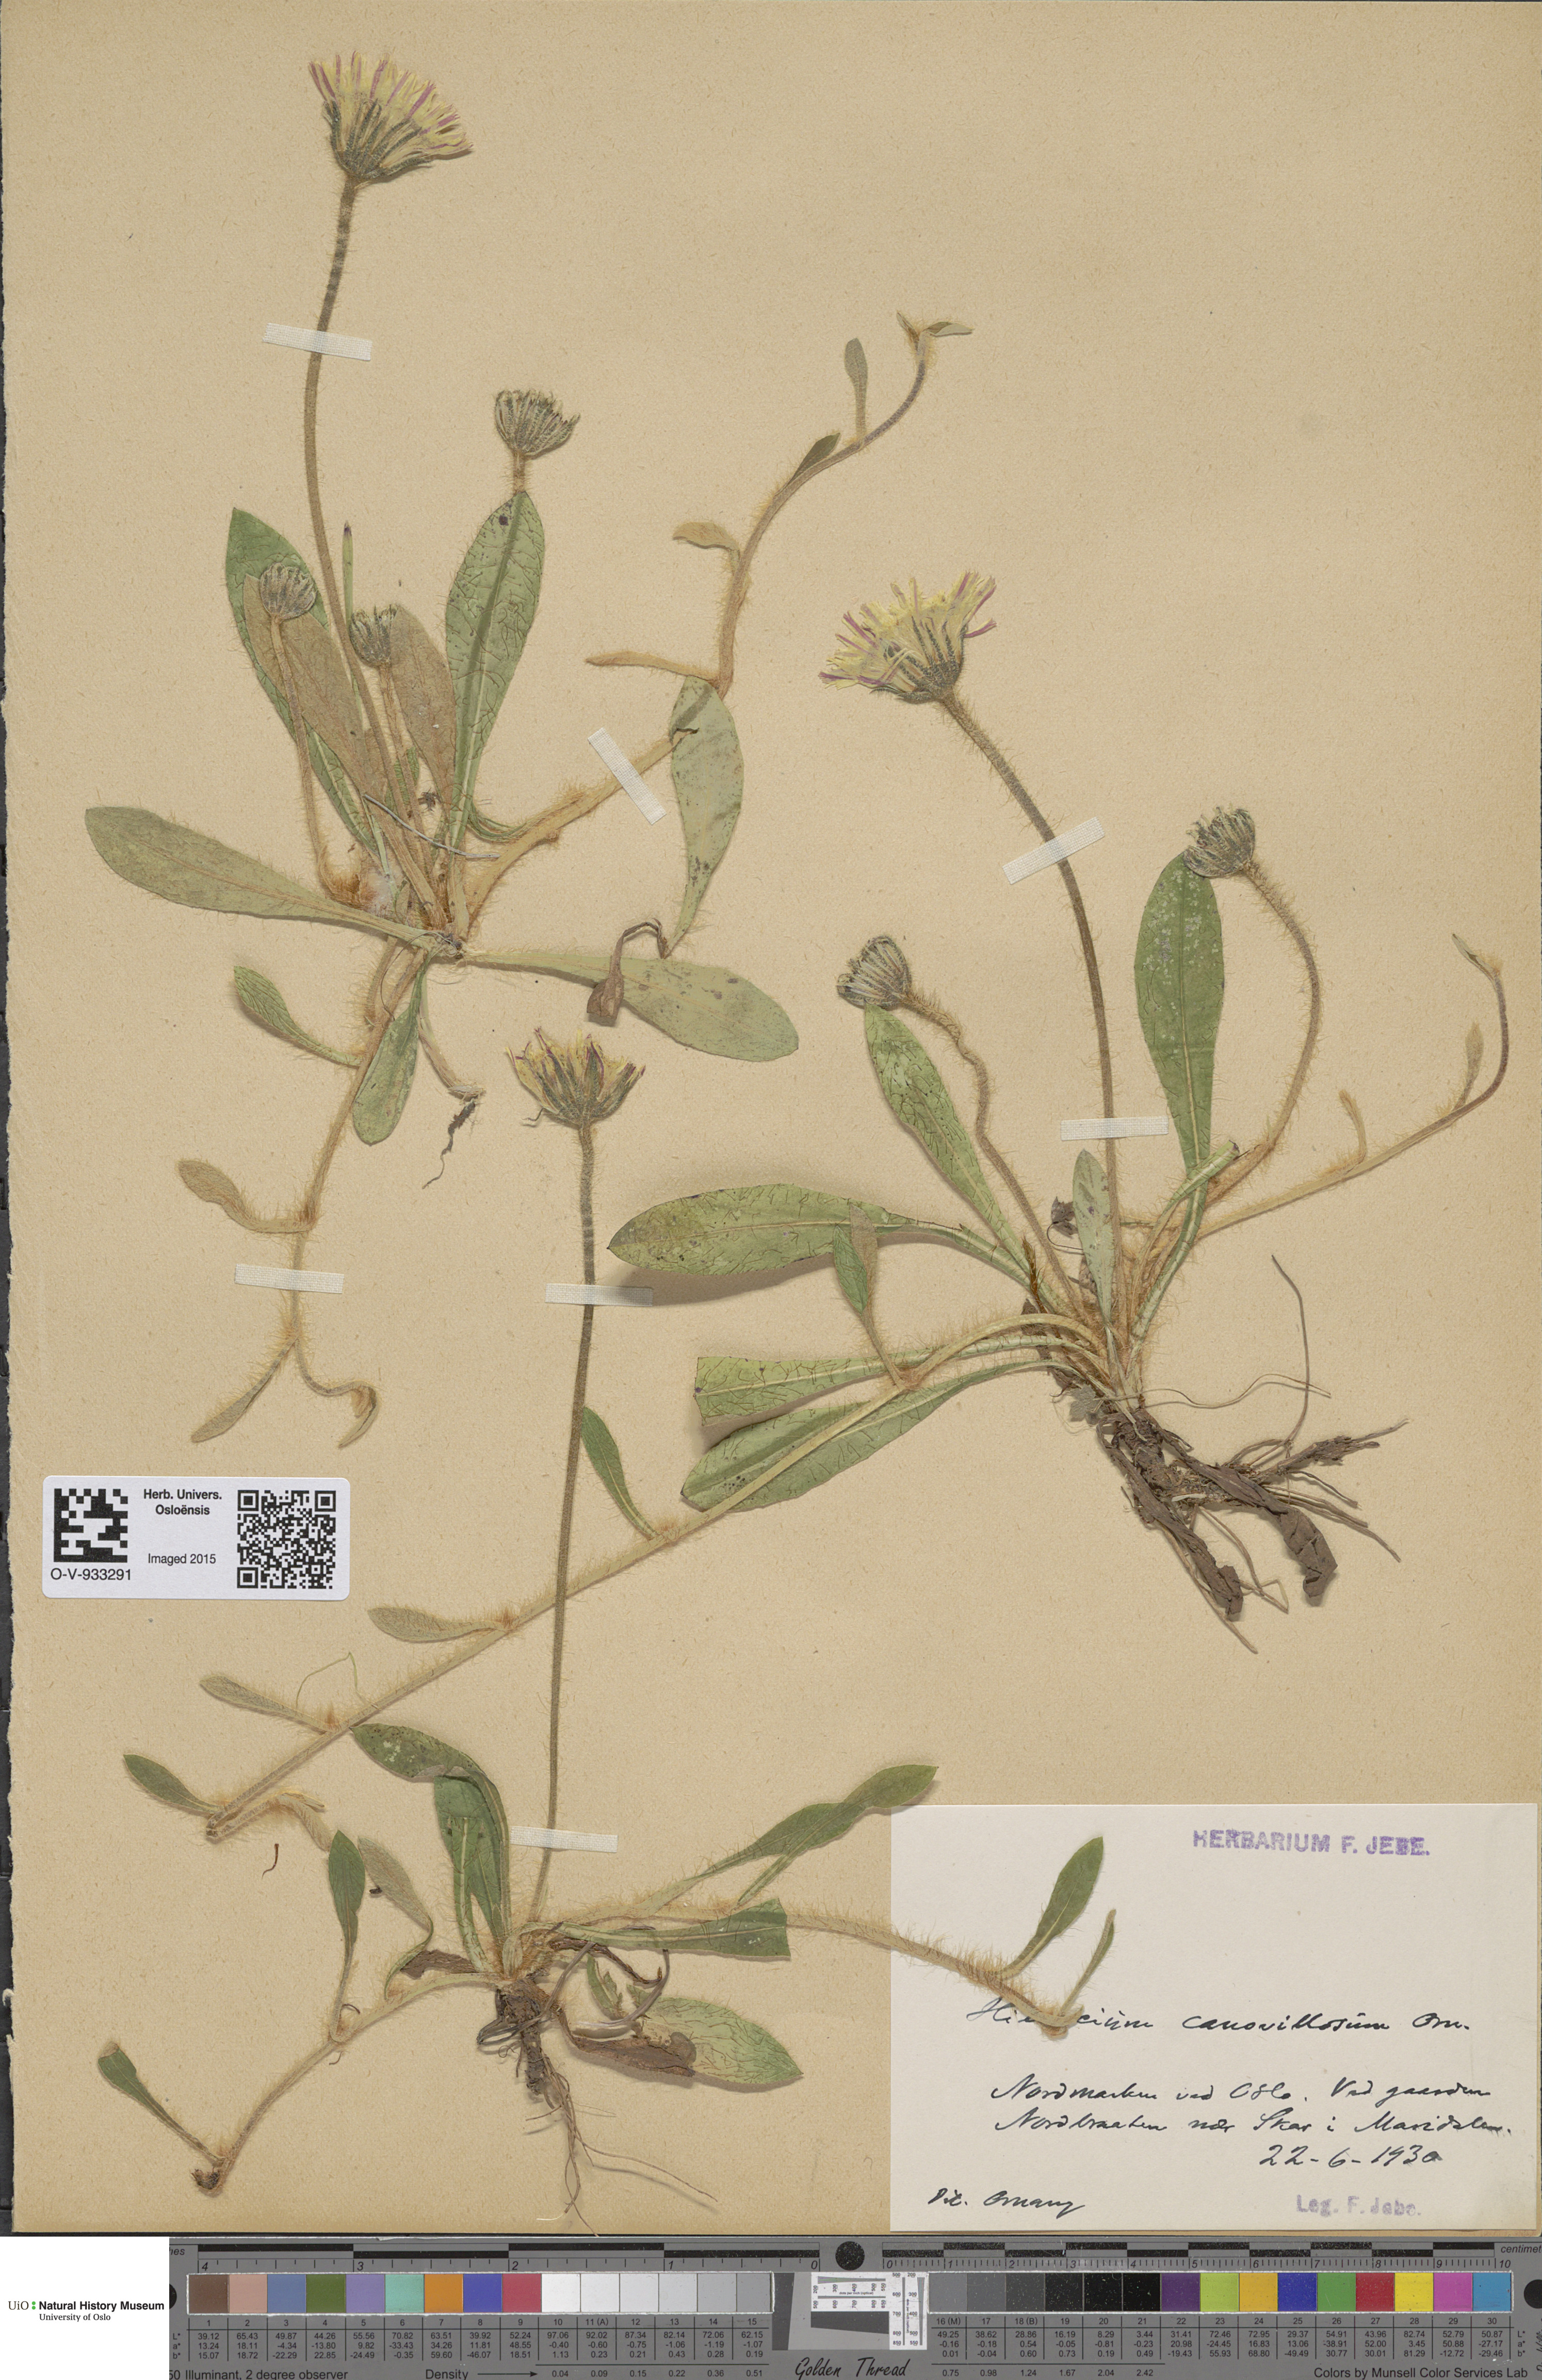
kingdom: Plantae
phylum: Tracheophyta
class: Magnoliopsida
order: Asterales
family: Asteraceae
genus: Pilosella
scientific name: Pilosella officinarum
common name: Mouse-ear hawkweed
